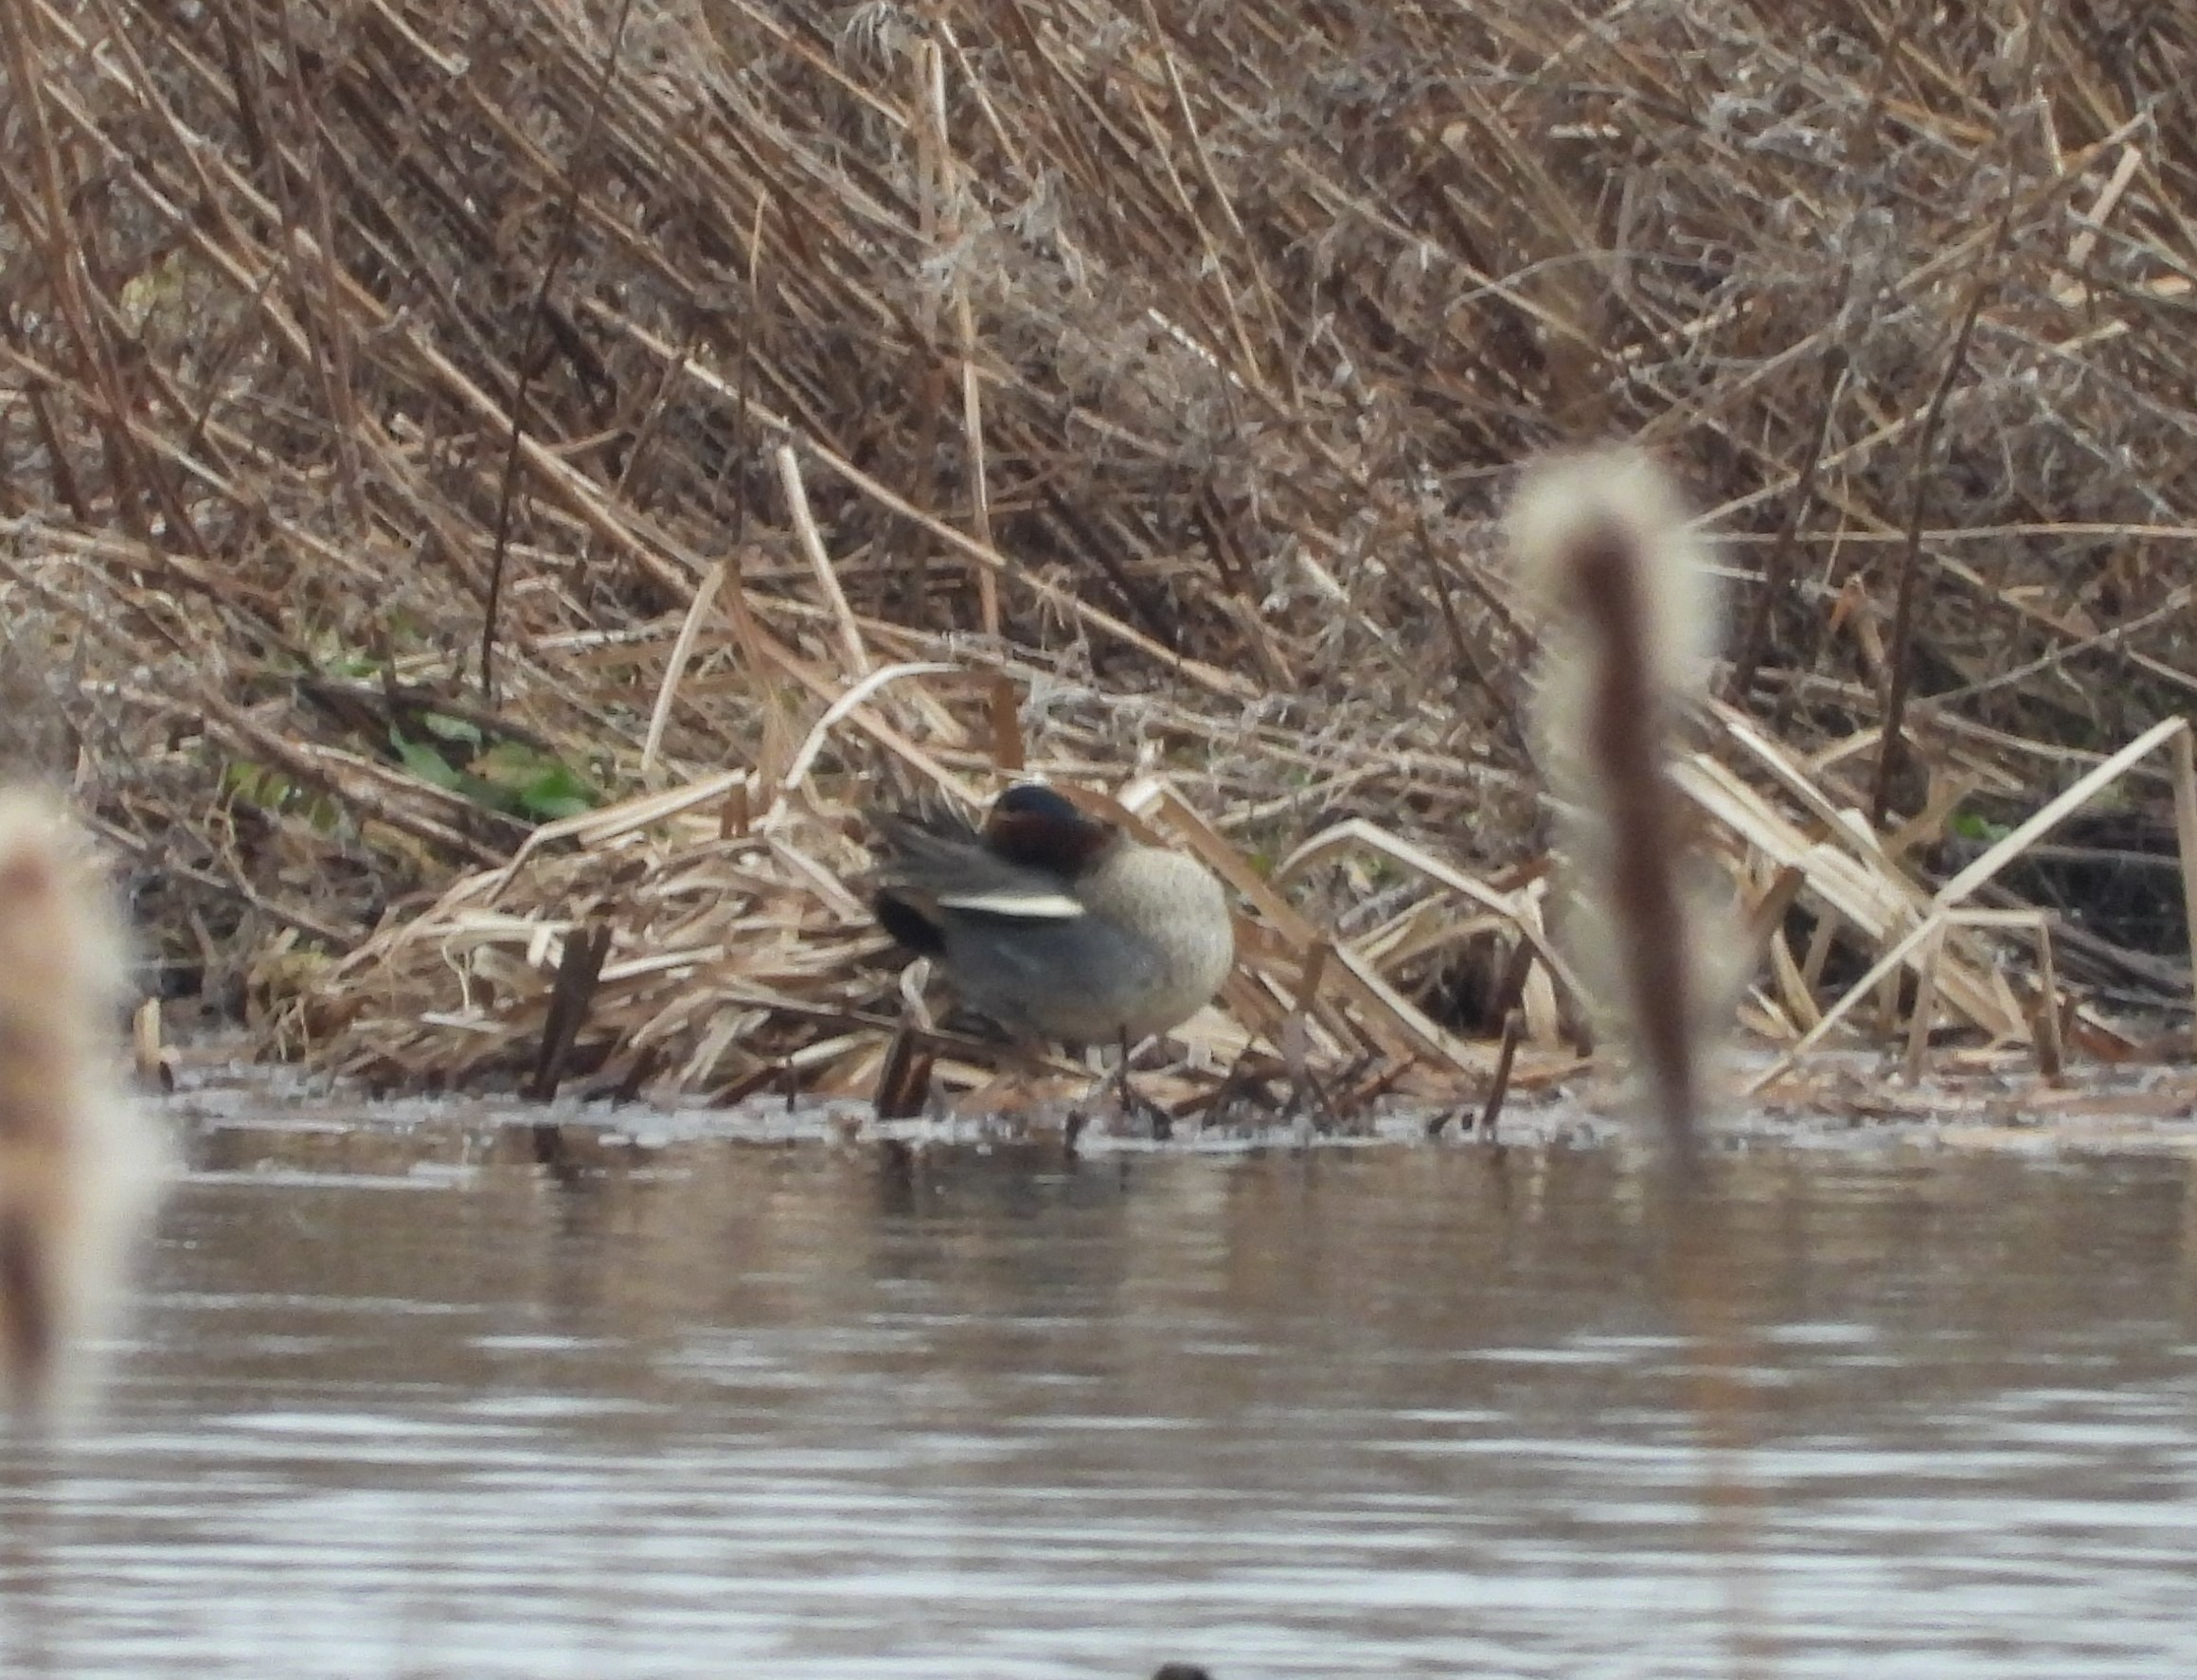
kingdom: Animalia
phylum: Chordata
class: Aves
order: Anseriformes
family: Anatidae
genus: Anas
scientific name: Anas crecca
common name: Krikand
